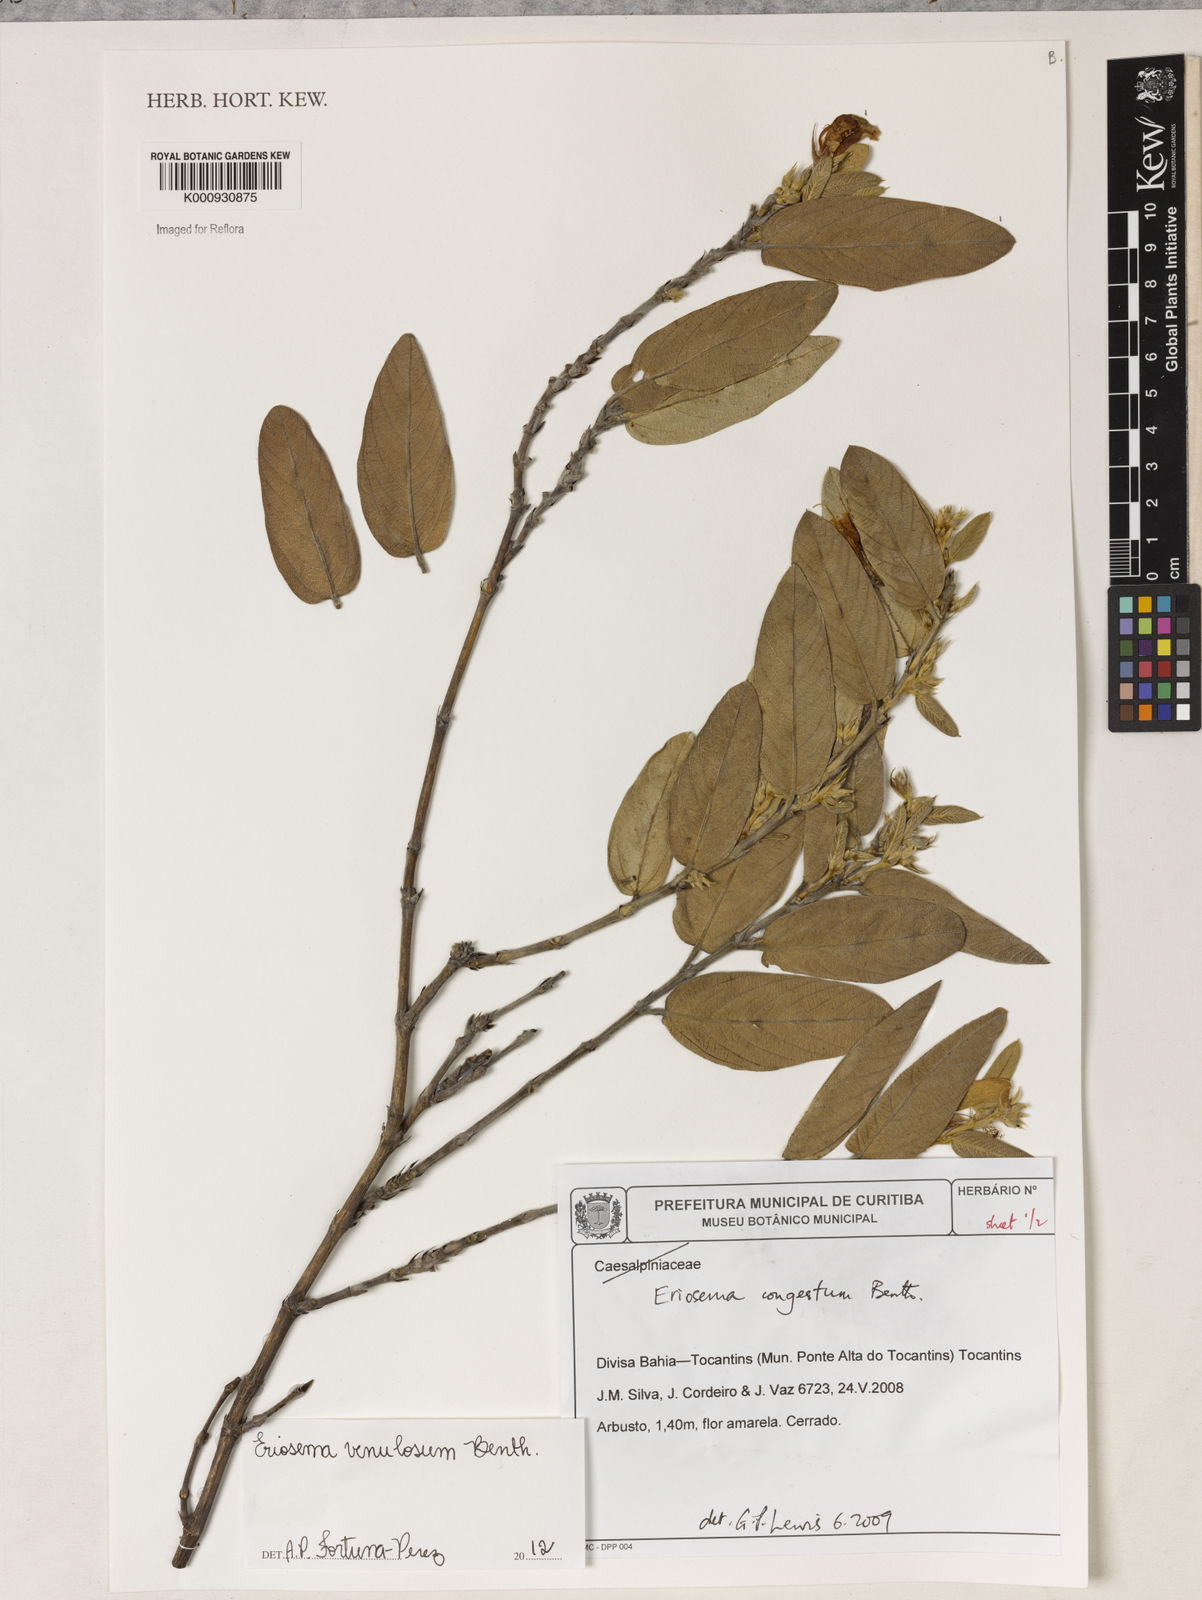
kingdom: Plantae
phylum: Tracheophyta
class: Magnoliopsida
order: Fabales
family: Fabaceae
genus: Eriosema
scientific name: Eriosema venulosum
